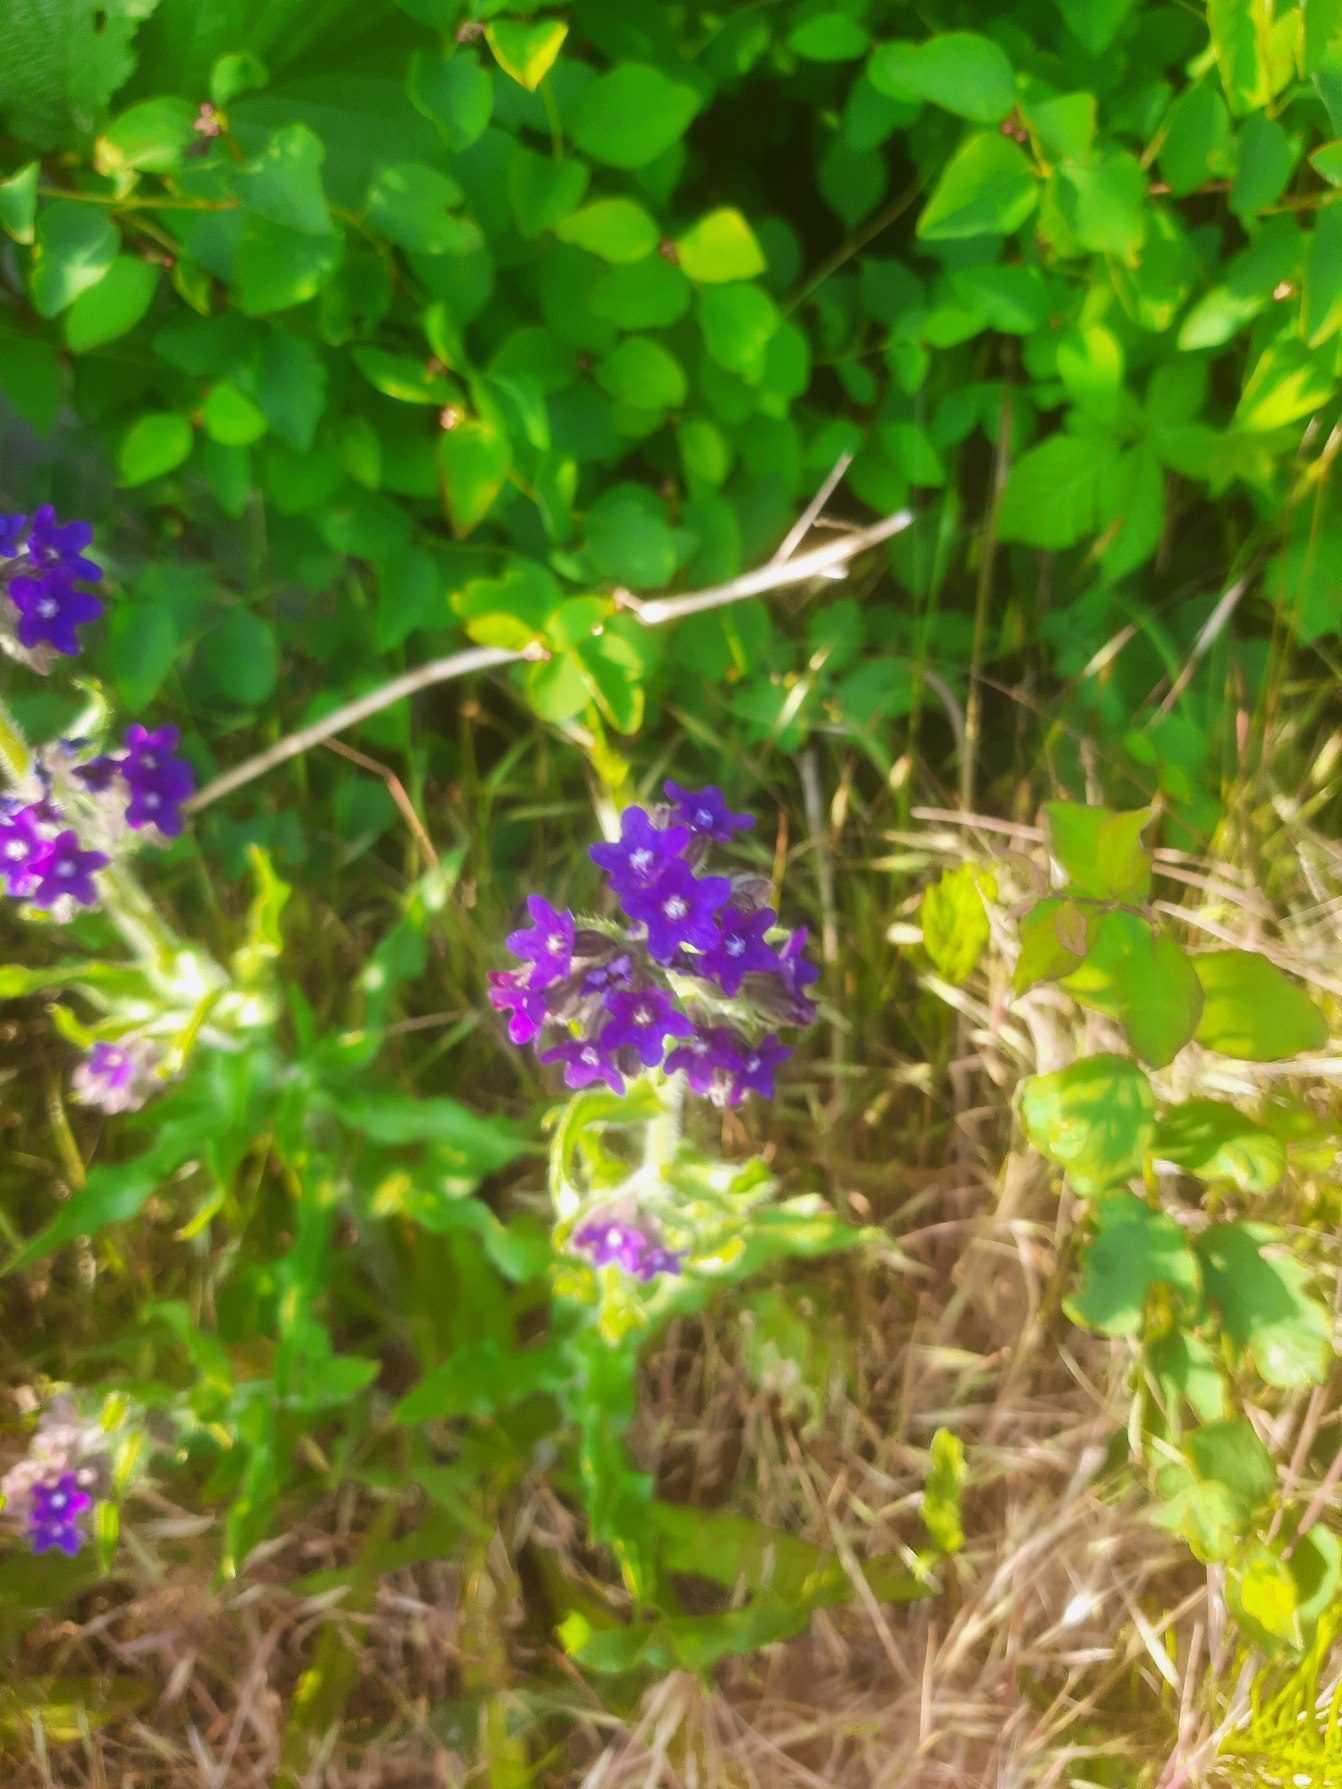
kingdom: Plantae
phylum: Tracheophyta
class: Magnoliopsida
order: Boraginales
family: Boraginaceae
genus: Anchusa
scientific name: Anchusa officinalis
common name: Læge-oksetunge
